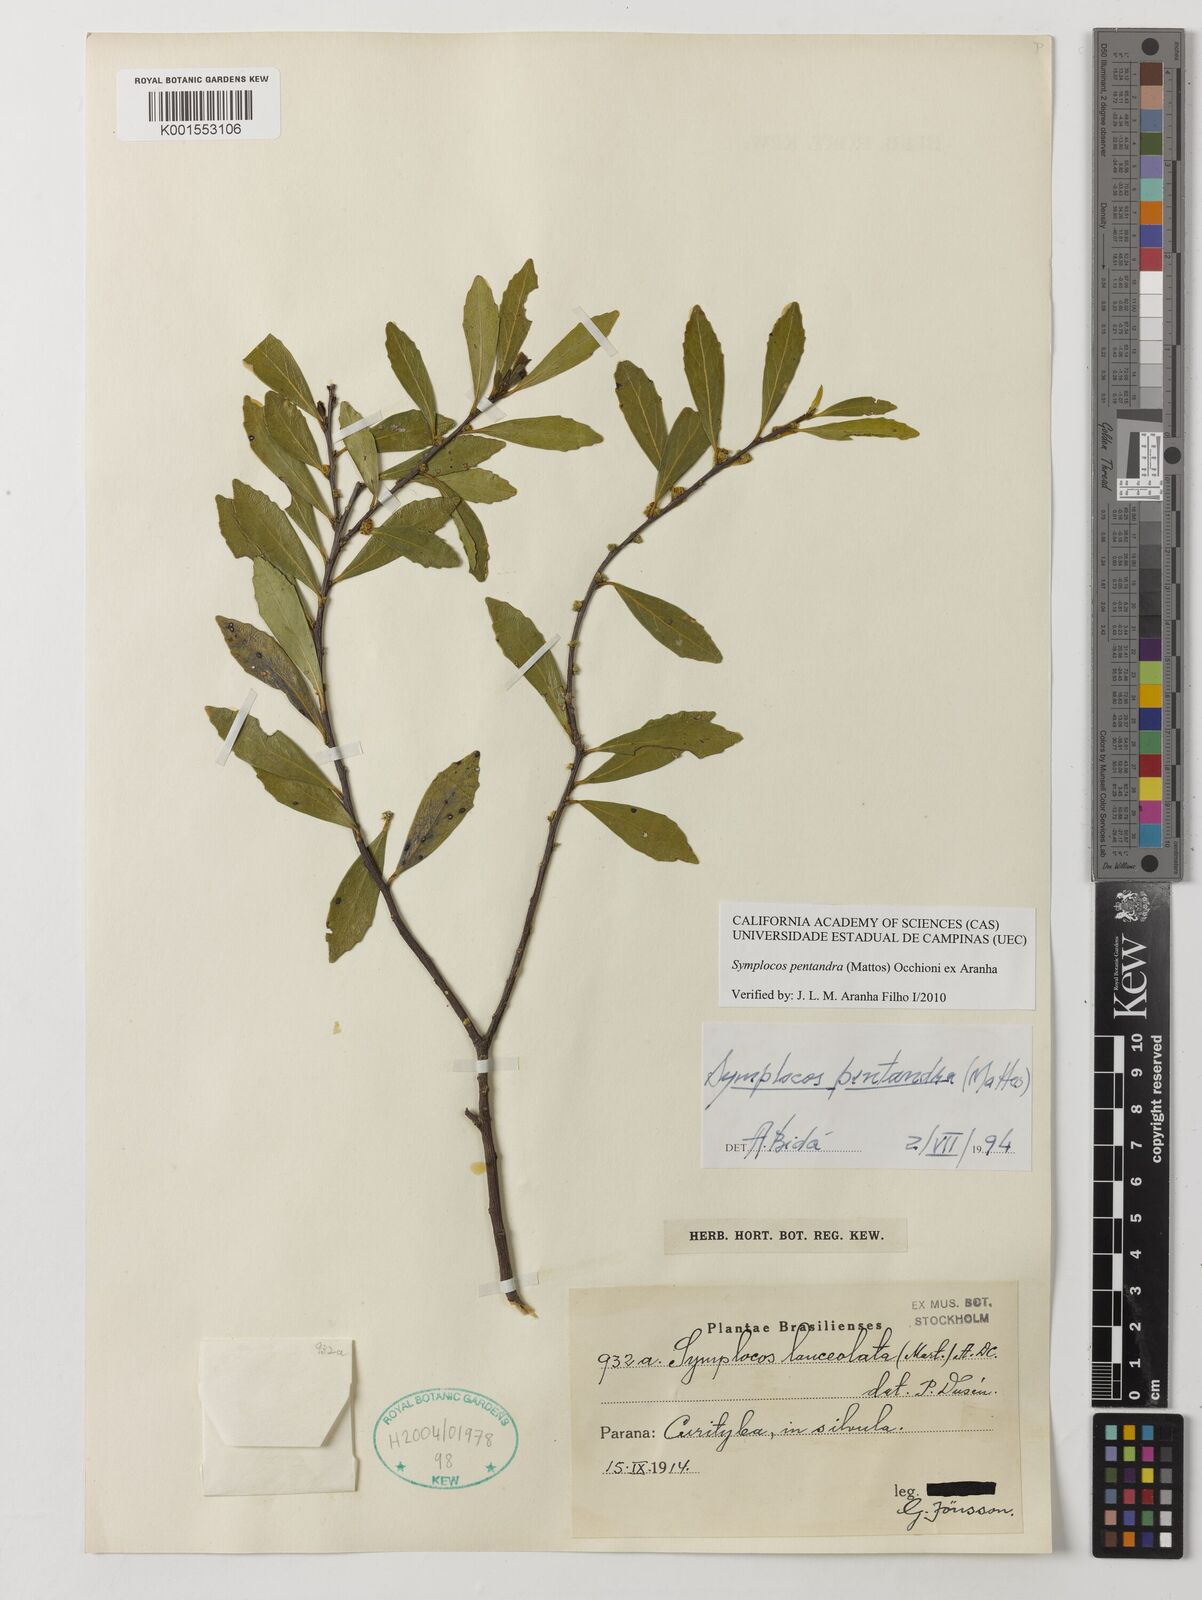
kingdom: Plantae
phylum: Tracheophyta
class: Magnoliopsida
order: Ericales
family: Symplocaceae
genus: Symplocos
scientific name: Symplocos pentandra
